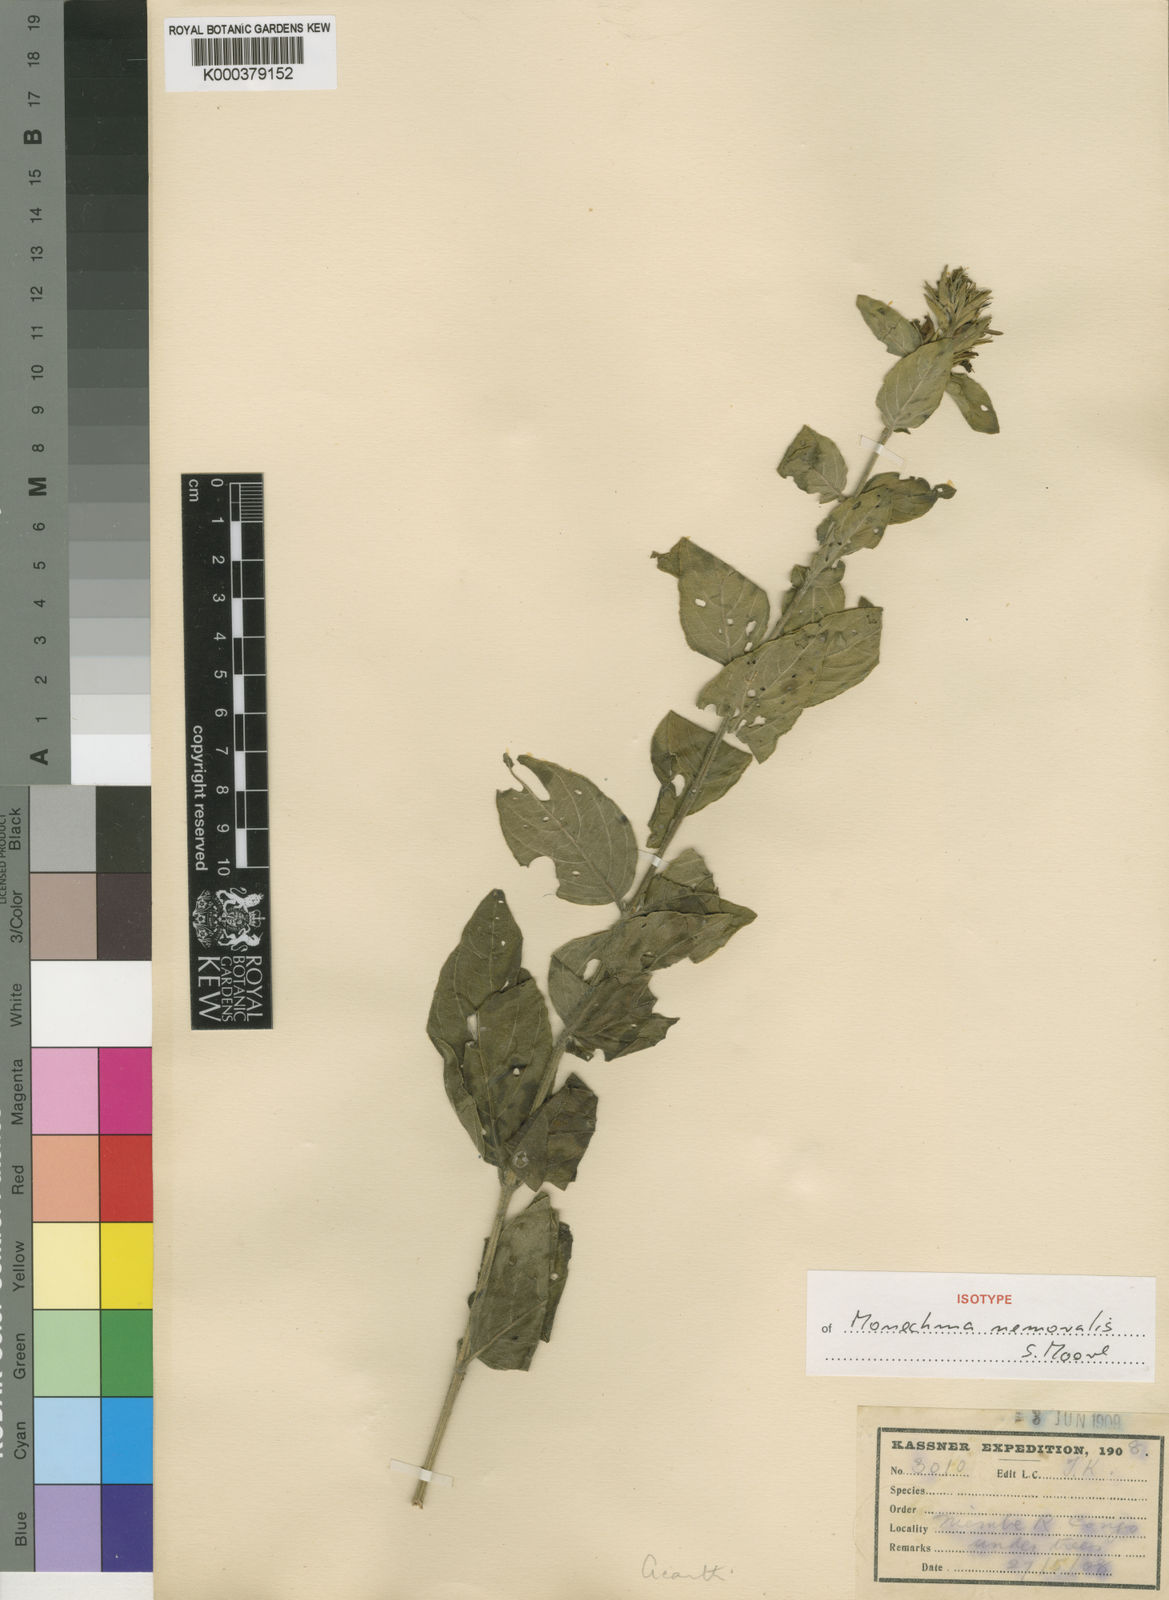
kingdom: Plantae
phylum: Tracheophyta
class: Magnoliopsida
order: Lamiales
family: Acanthaceae
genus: Monechma
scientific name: Monechma subsessile
